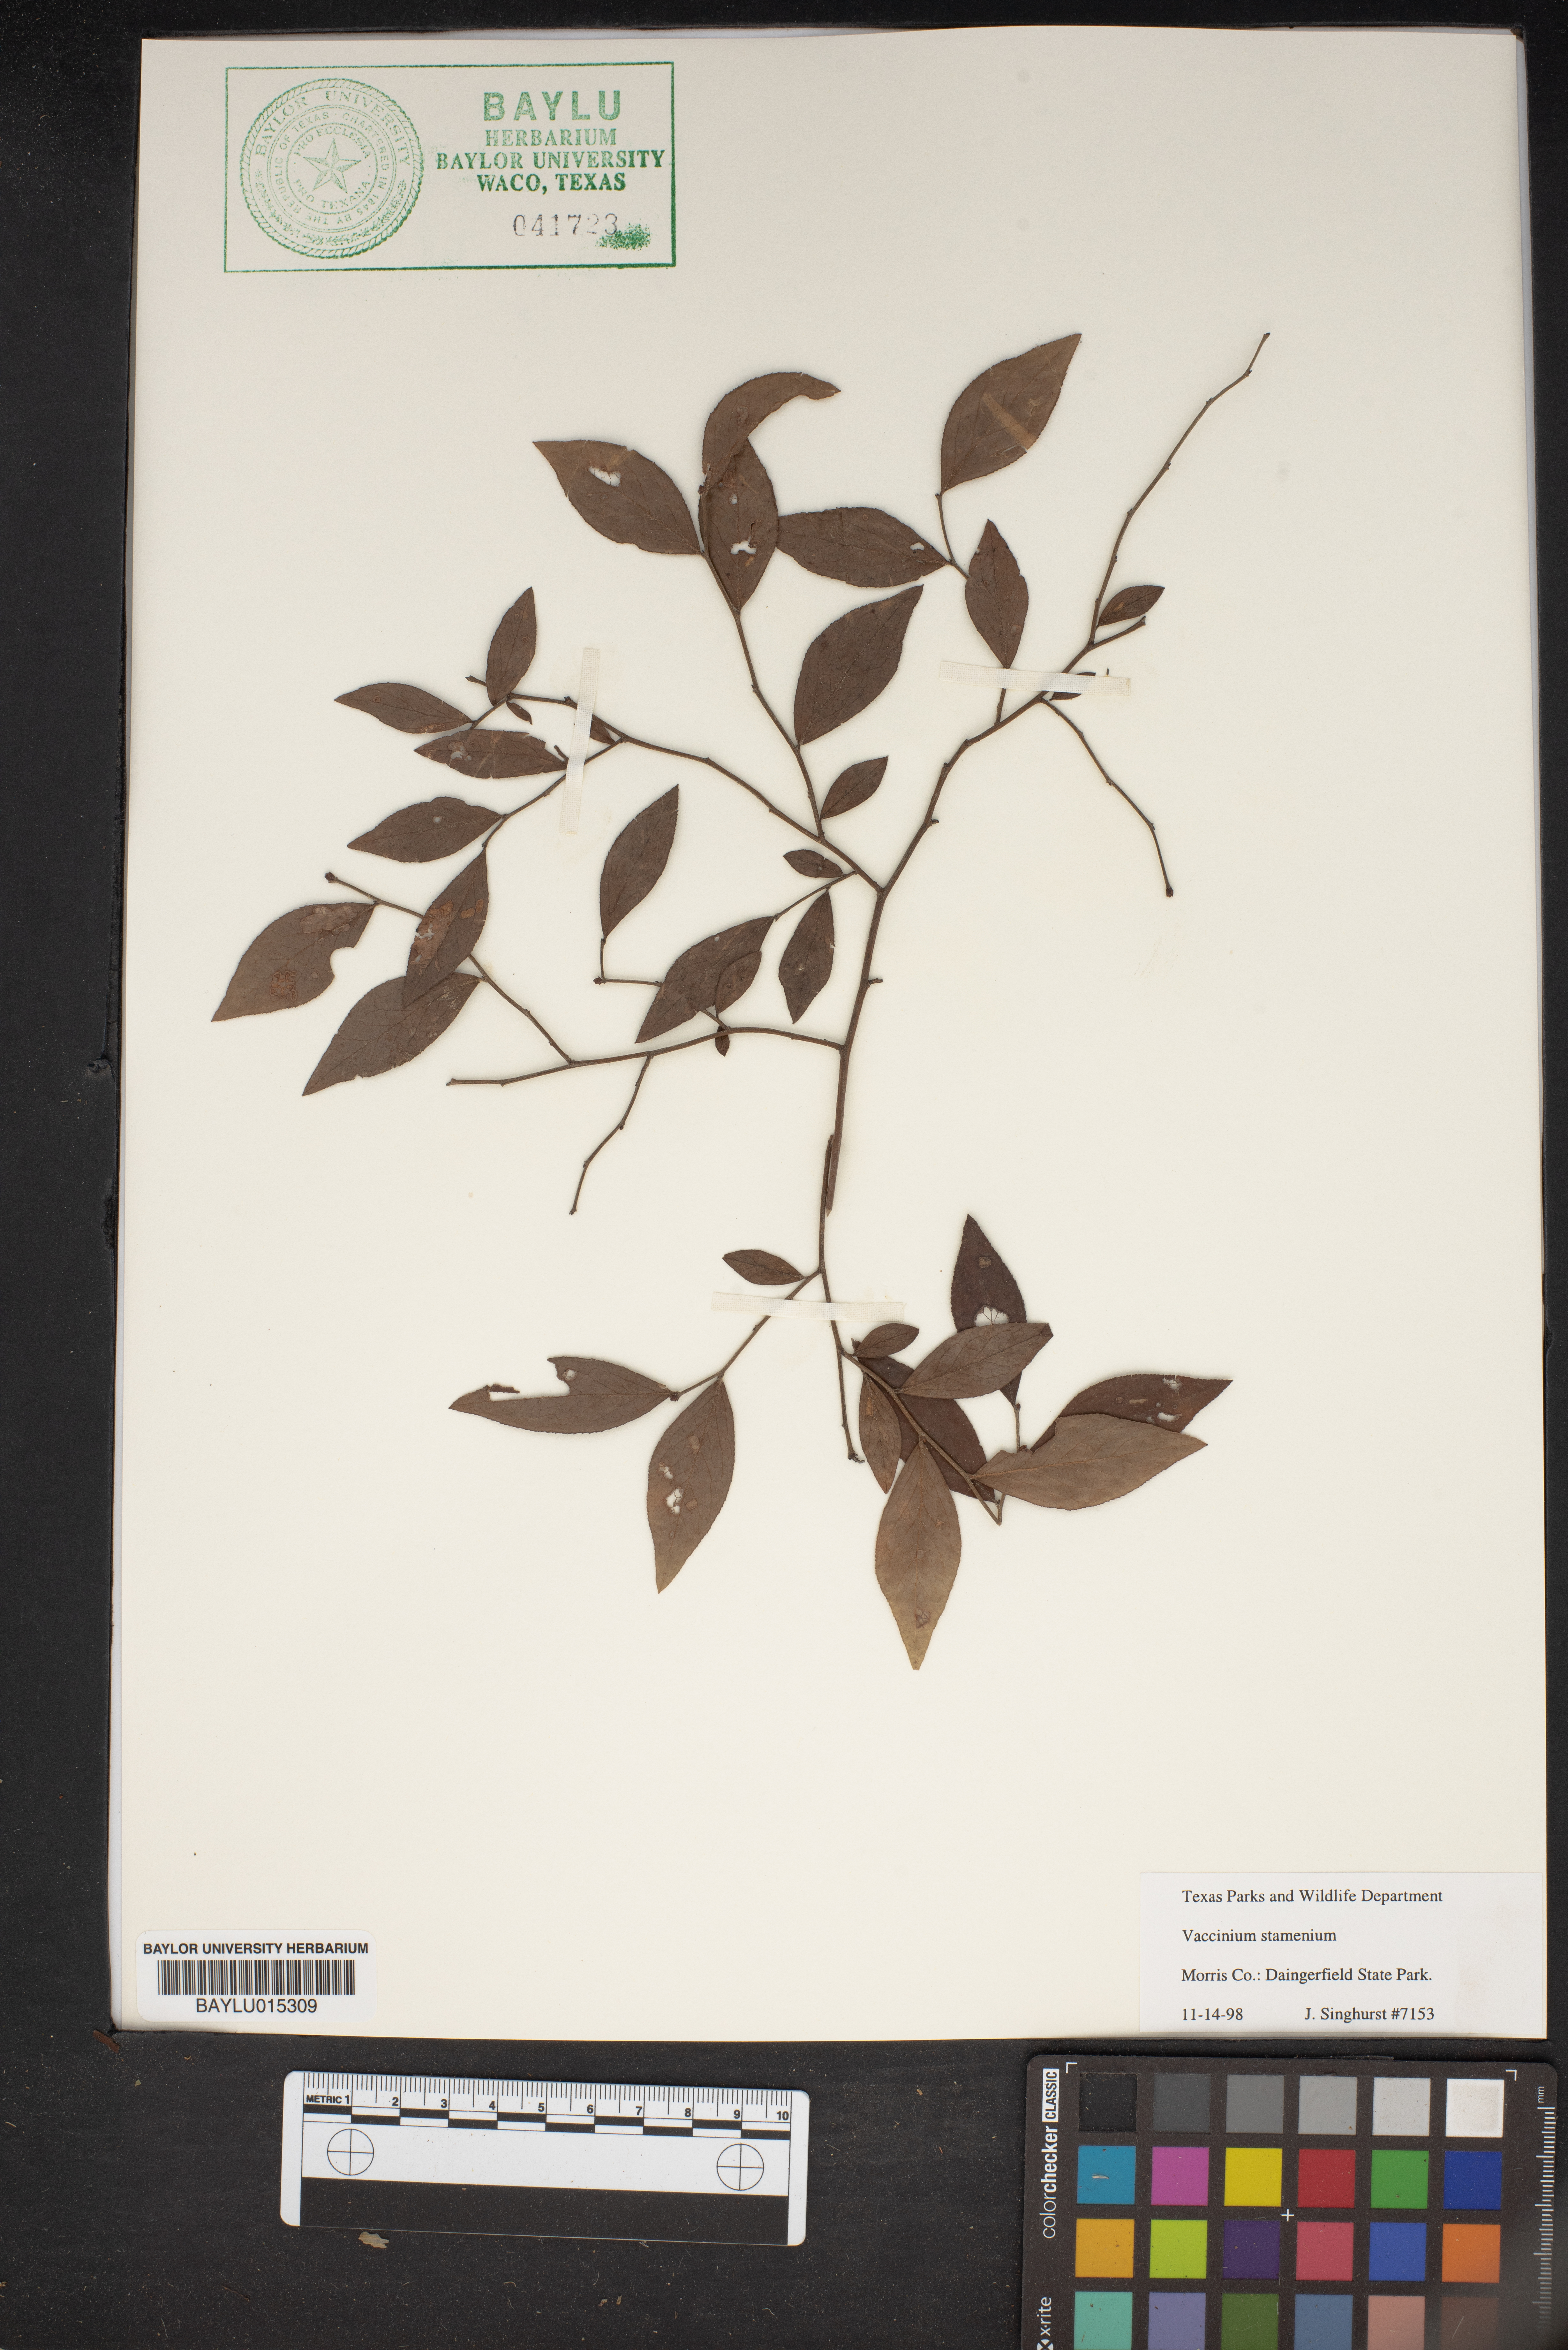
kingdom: Plantae
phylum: Tracheophyta
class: Magnoliopsida
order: Ericales
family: Ericaceae
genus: Vaccinium
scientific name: Vaccinium stamineum
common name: Deerberry
